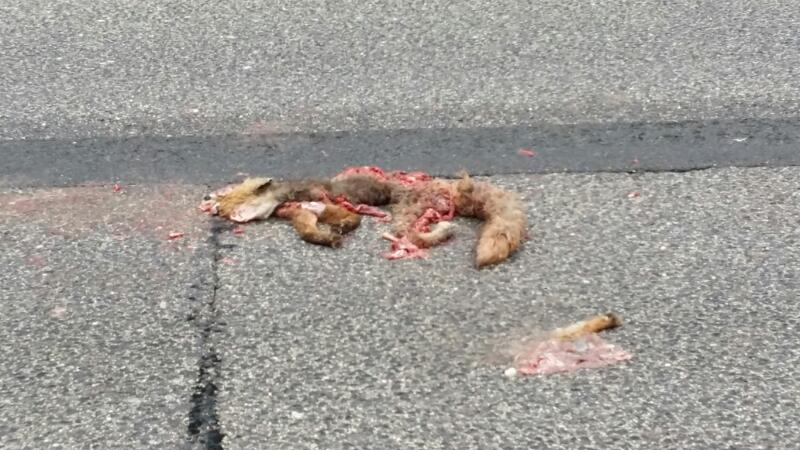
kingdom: Animalia
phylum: Chordata
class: Mammalia
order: Carnivora
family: Canidae
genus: Vulpes
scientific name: Vulpes vulpes
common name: Red fox
